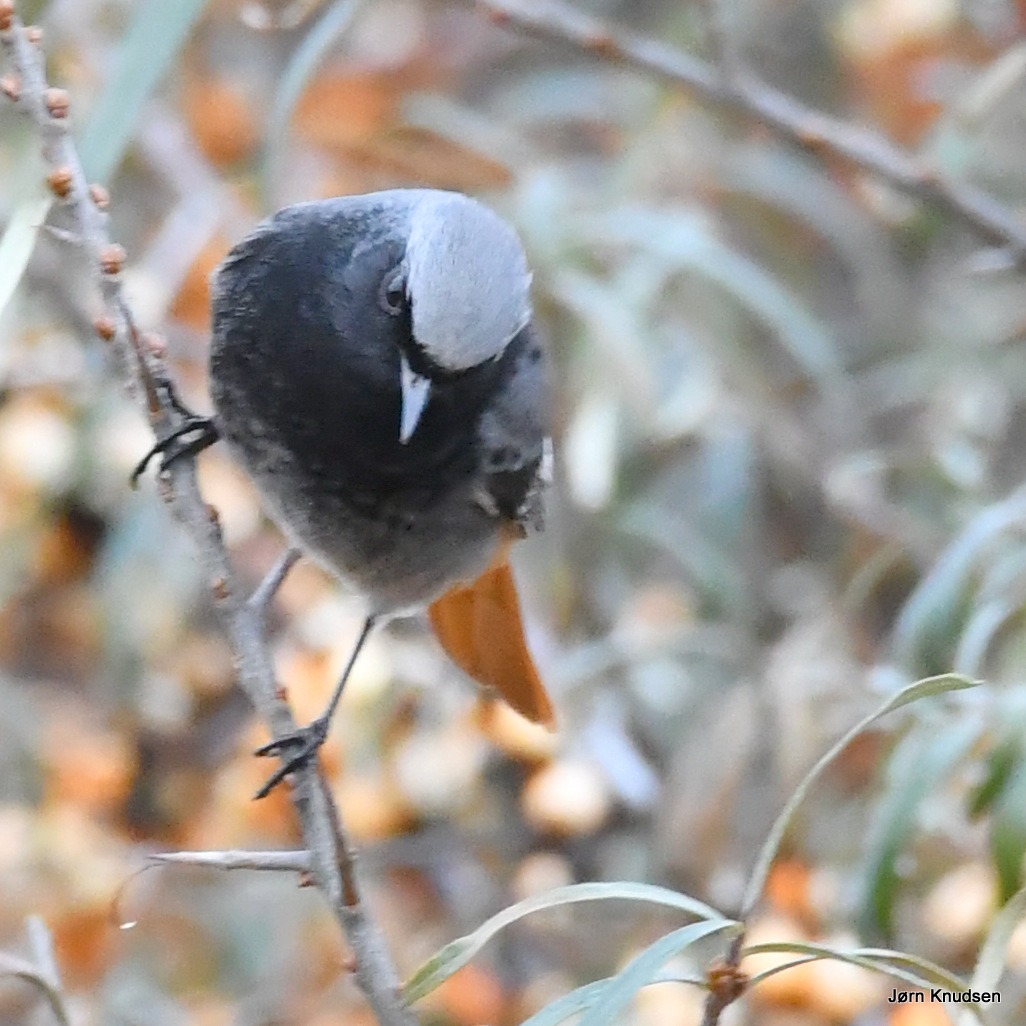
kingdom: Animalia
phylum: Chordata
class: Aves
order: Passeriformes
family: Muscicapidae
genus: Phoenicurus
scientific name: Phoenicurus ochruros
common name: Husrødstjert
